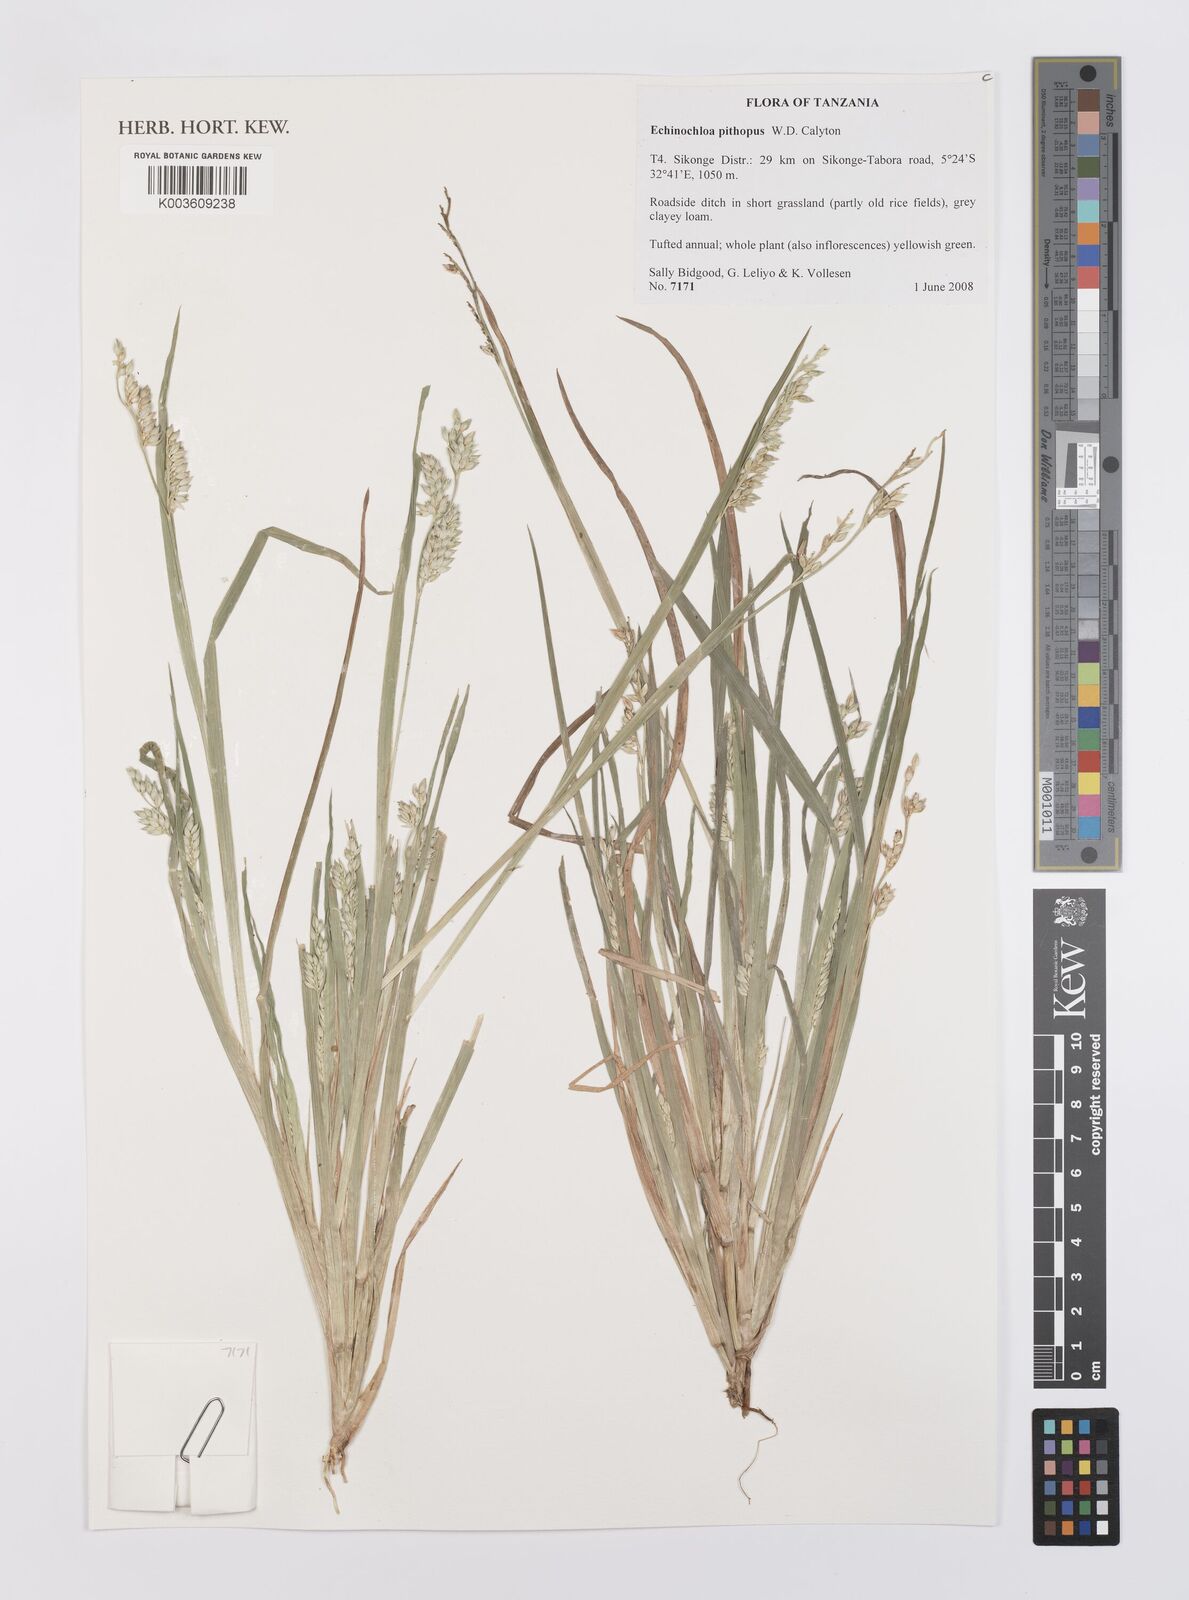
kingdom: Plantae
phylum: Tracheophyta
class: Liliopsida
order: Poales
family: Poaceae
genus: Echinochloa
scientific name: Echinochloa pithopus
